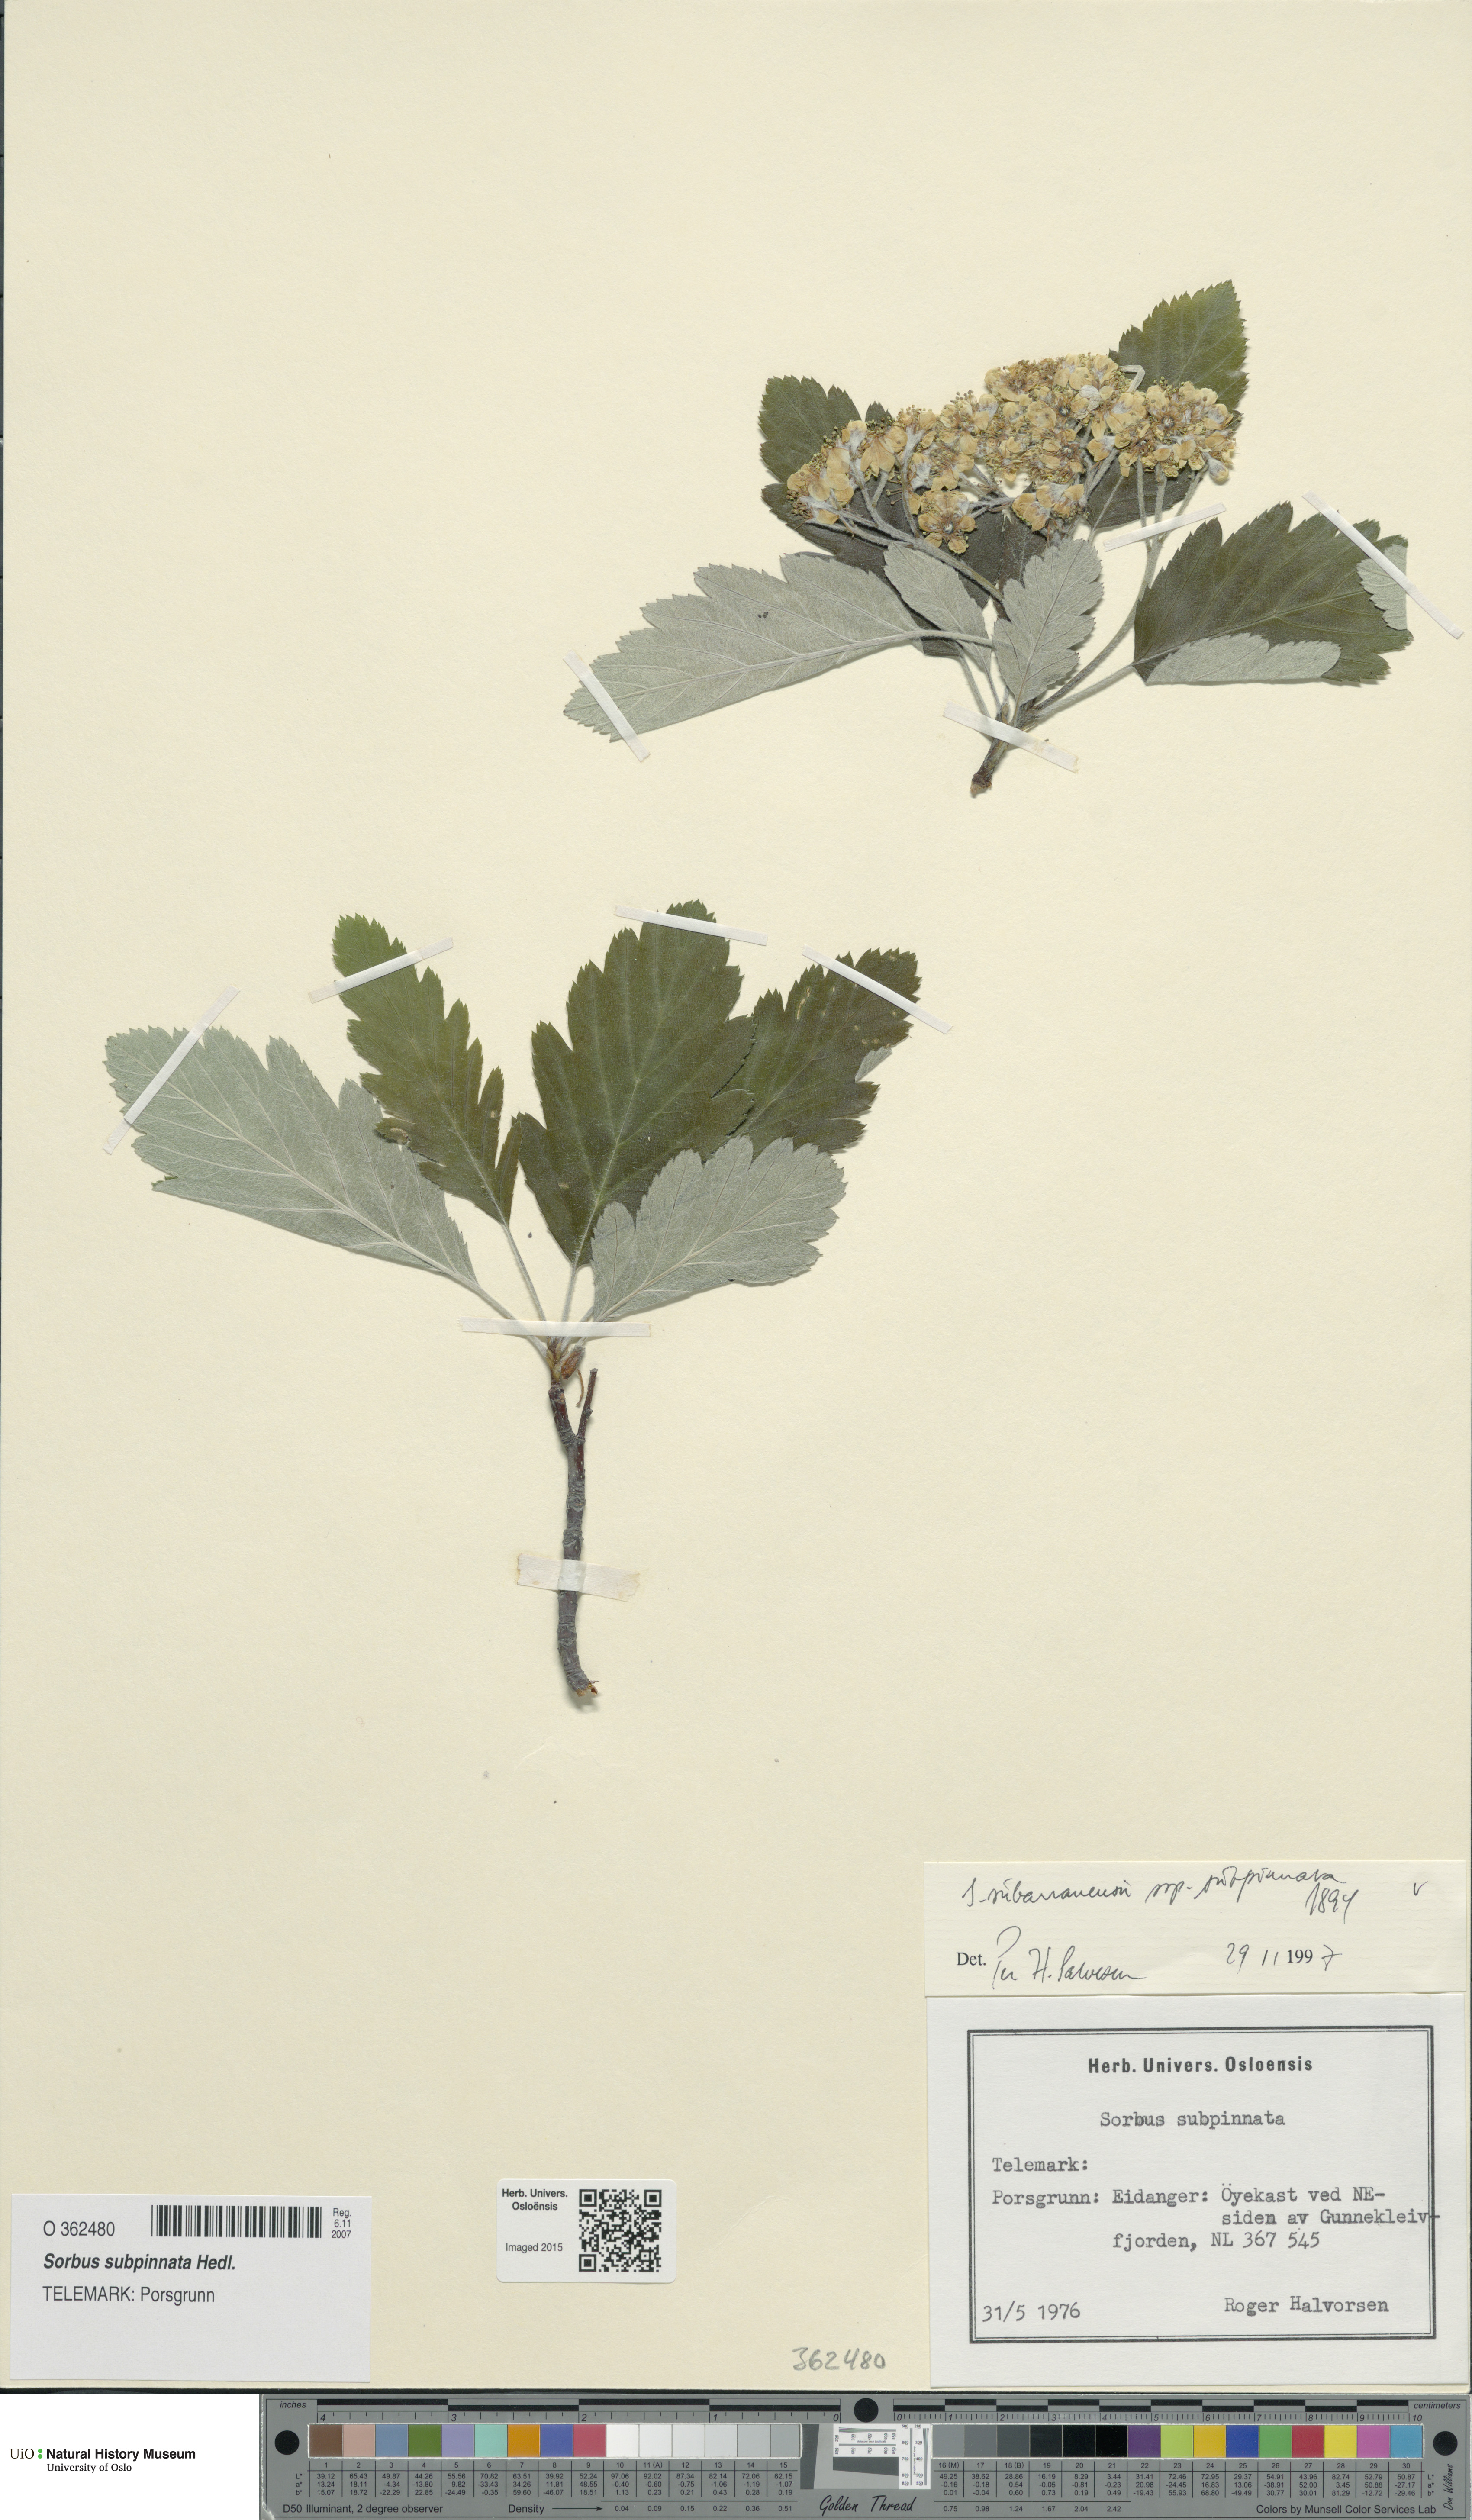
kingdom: Plantae
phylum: Tracheophyta
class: Magnoliopsida
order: Rosales
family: Rosaceae
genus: Hedlundia
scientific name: Hedlundia subpinnata
